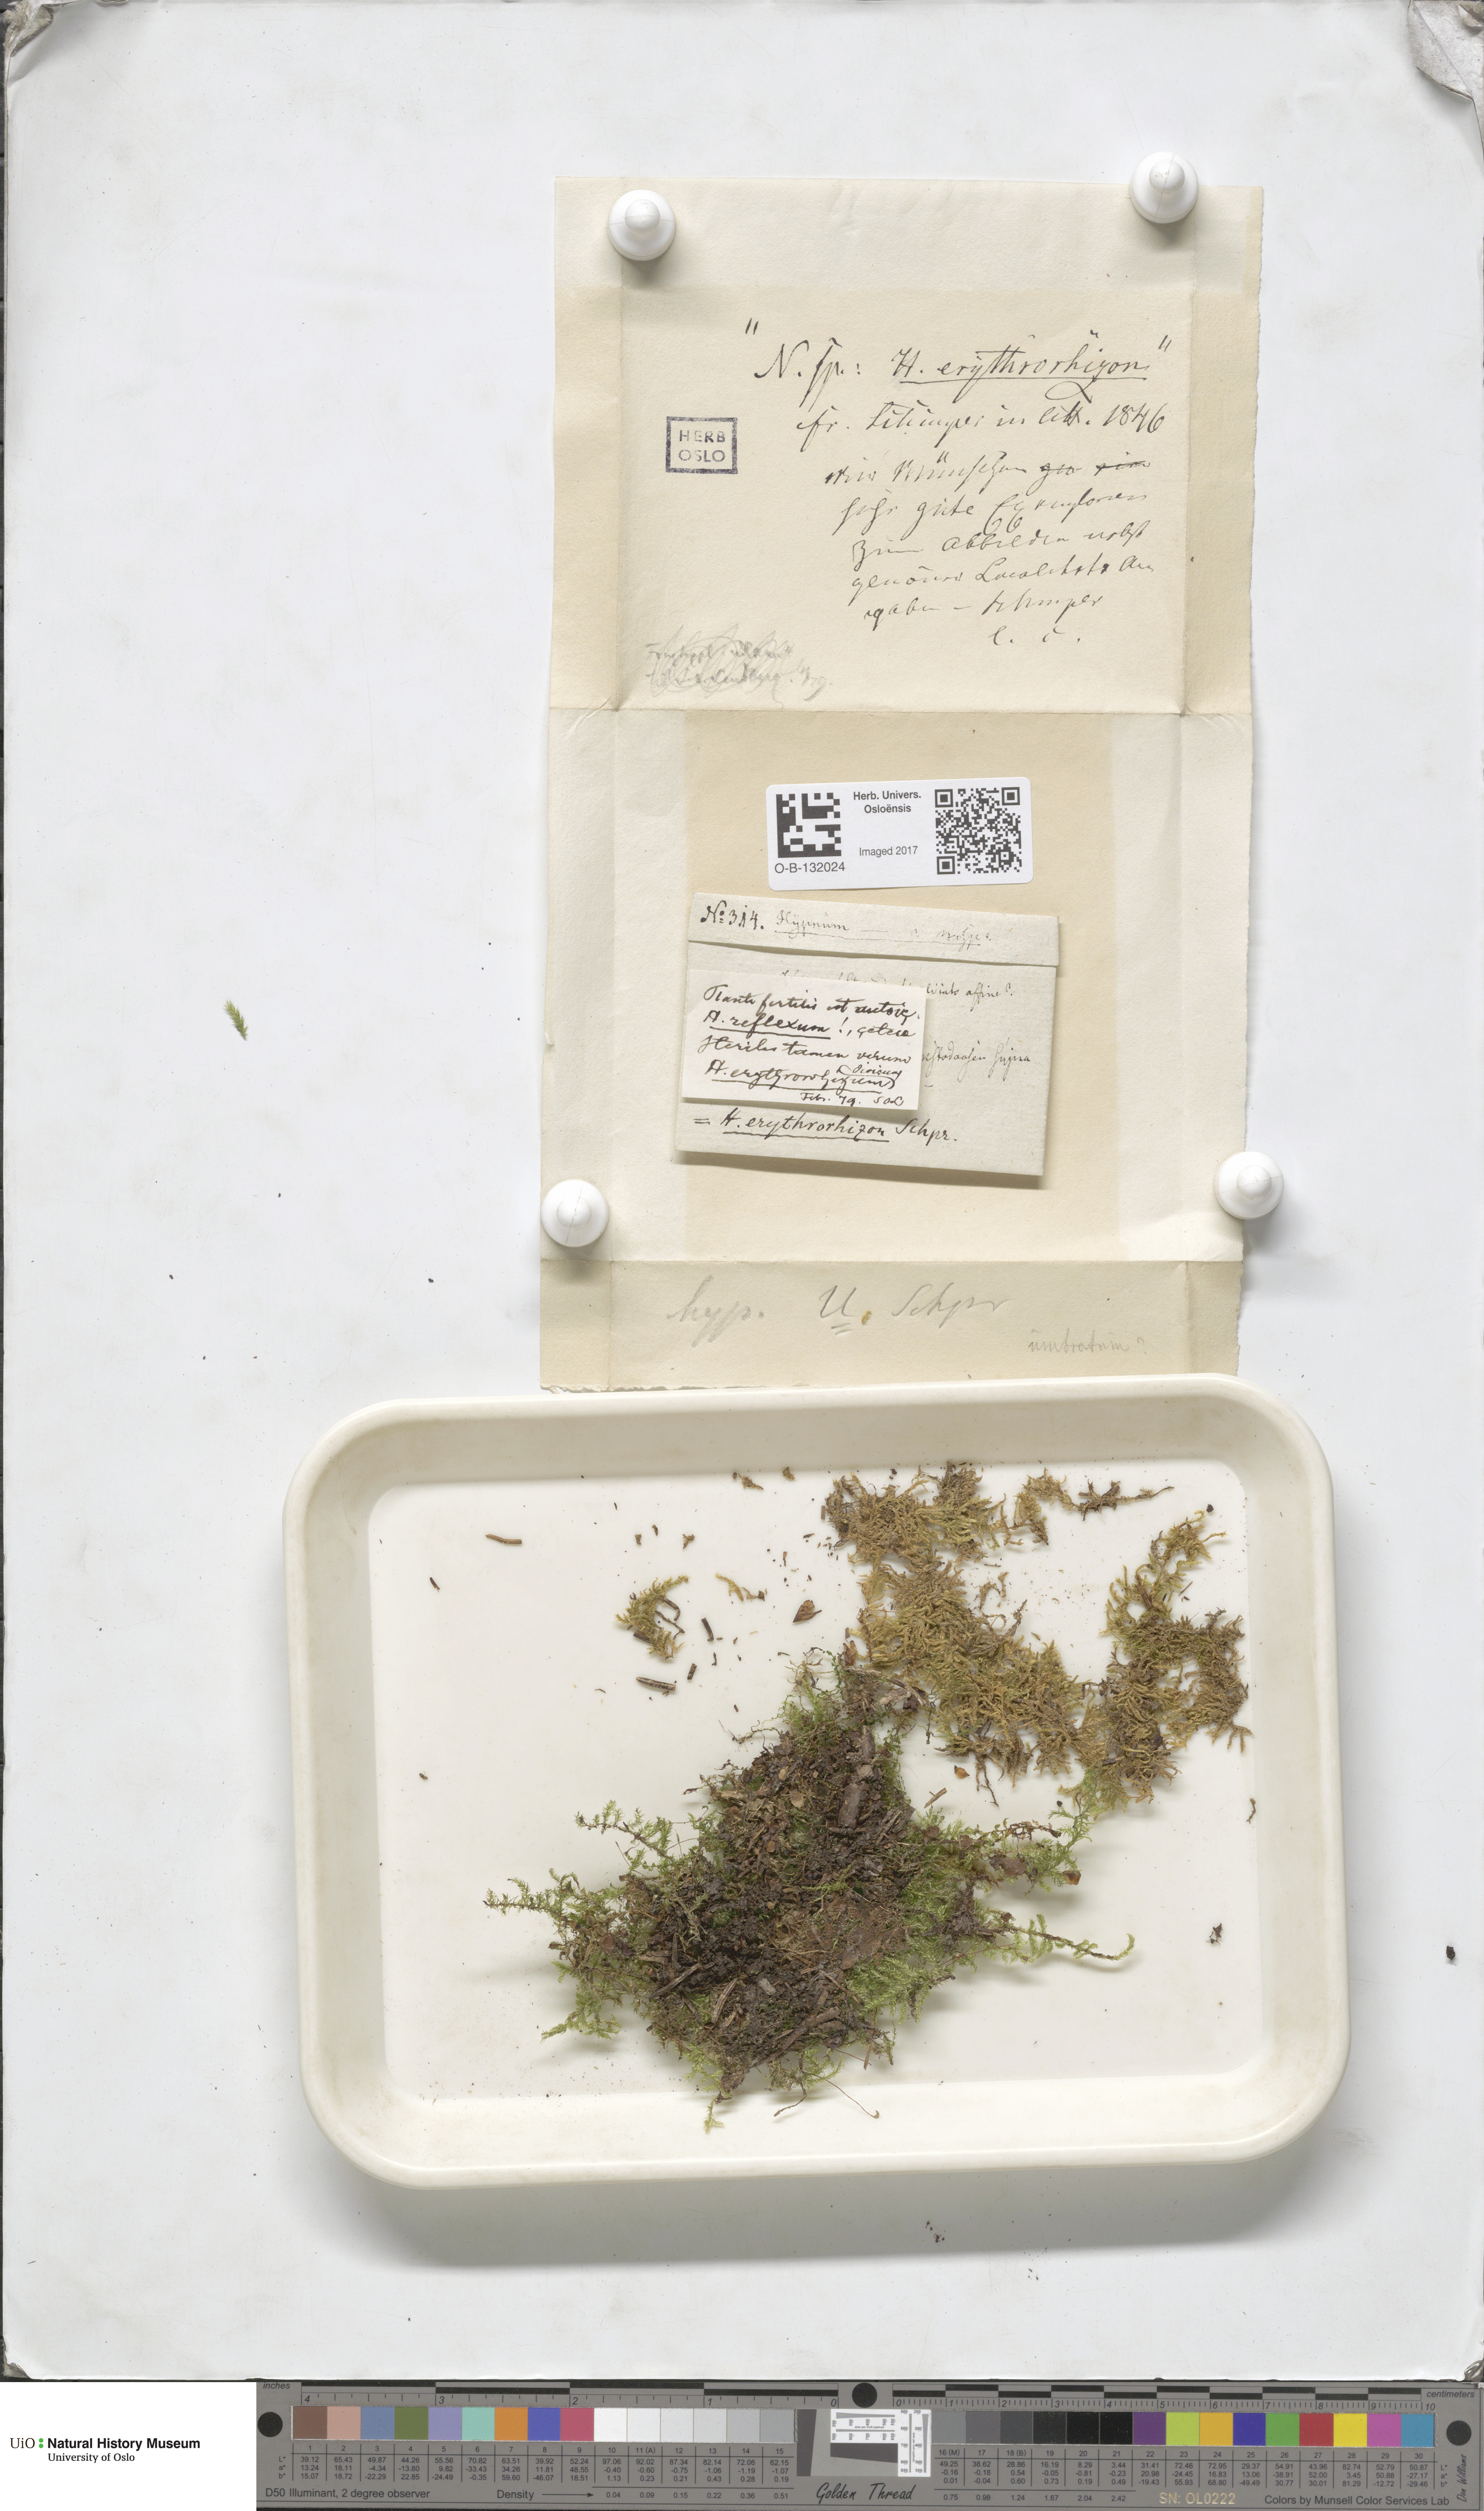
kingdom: Plantae
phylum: Bryophyta
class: Bryopsida
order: Hypnales
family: Brachytheciaceae
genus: Brachythecium
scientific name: Brachythecium erythrorrhizon
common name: Taiga ragged moss
